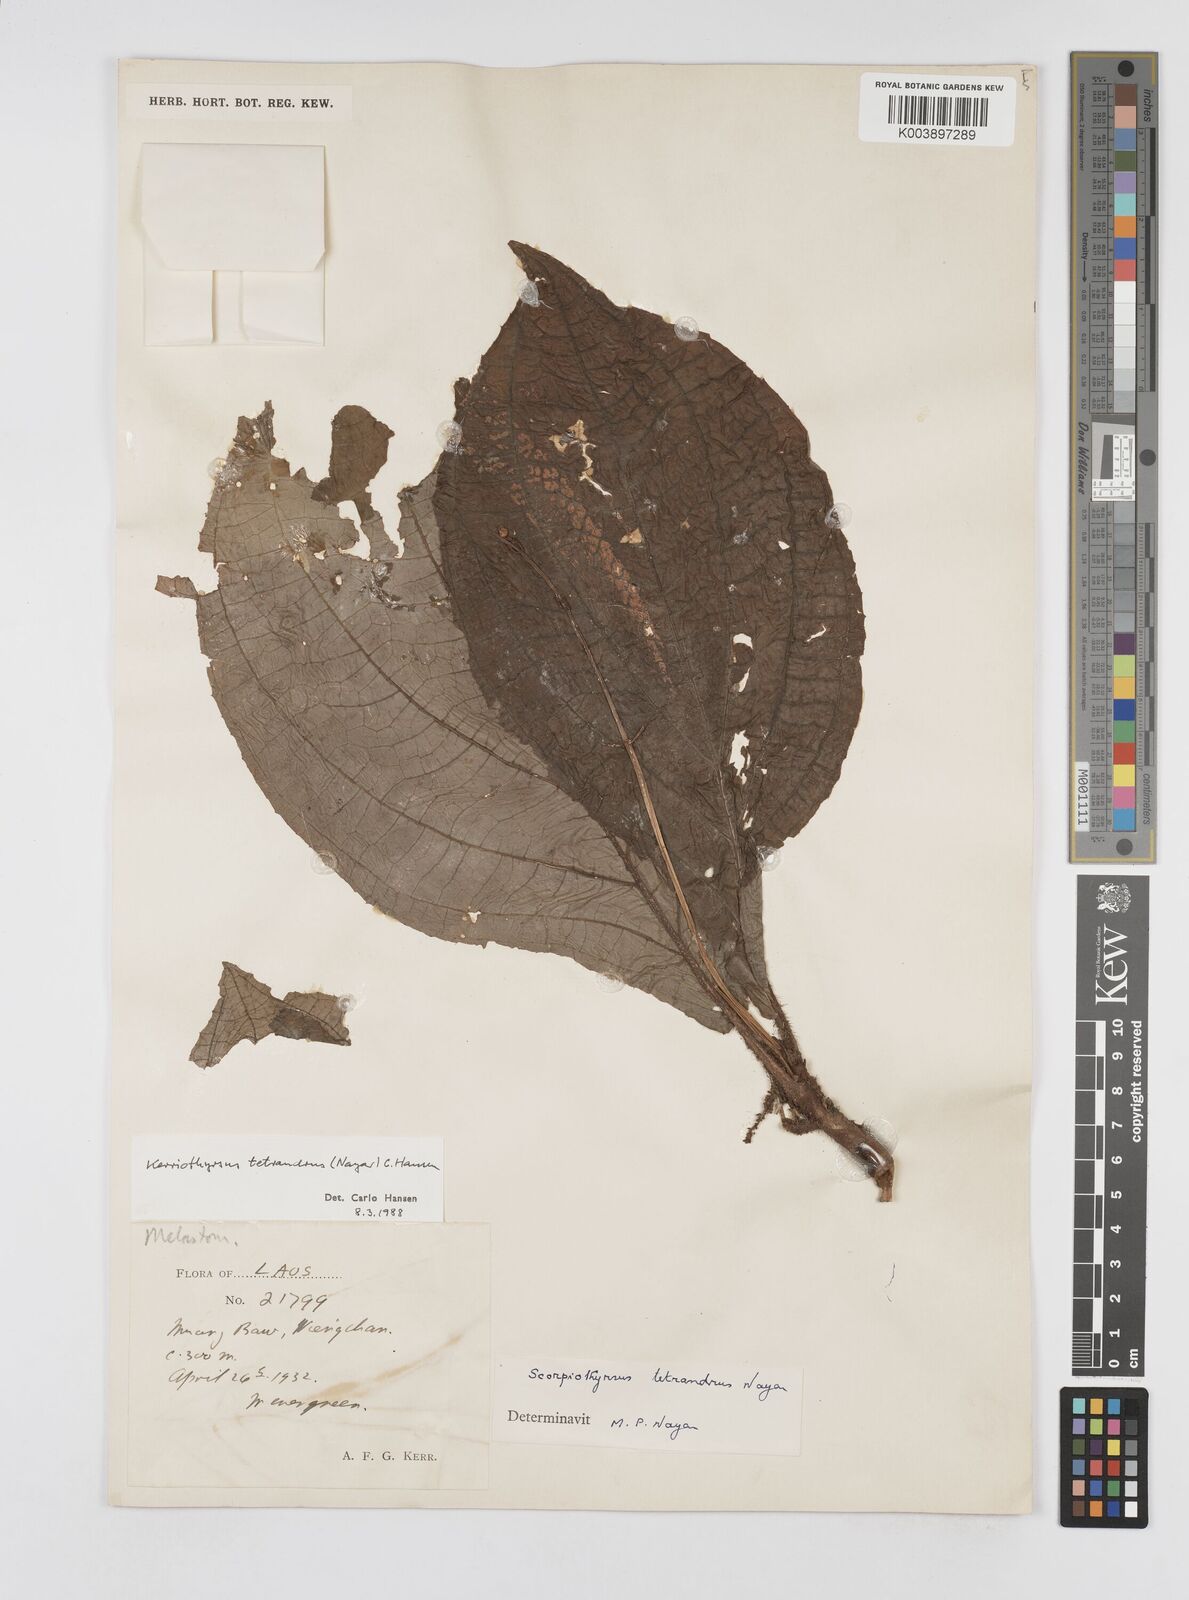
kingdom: Plantae
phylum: Tracheophyta
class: Magnoliopsida
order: Myrtales
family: Melastomataceae
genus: Kerriothyrsus
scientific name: Kerriothyrsus tetrandrus
